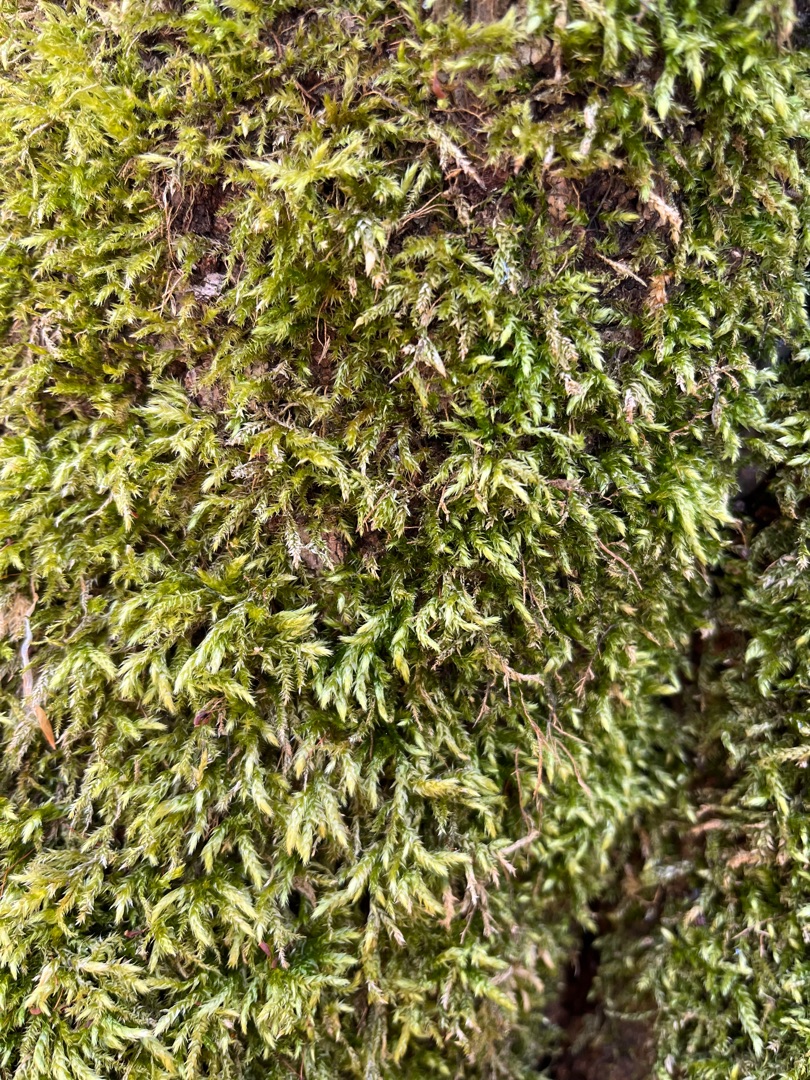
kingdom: Plantae
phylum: Bryophyta
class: Bryopsida
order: Hypnales
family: Brachytheciaceae
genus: Brachythecium
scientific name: Brachythecium rutabulum
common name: Almindelig kortkapsel
